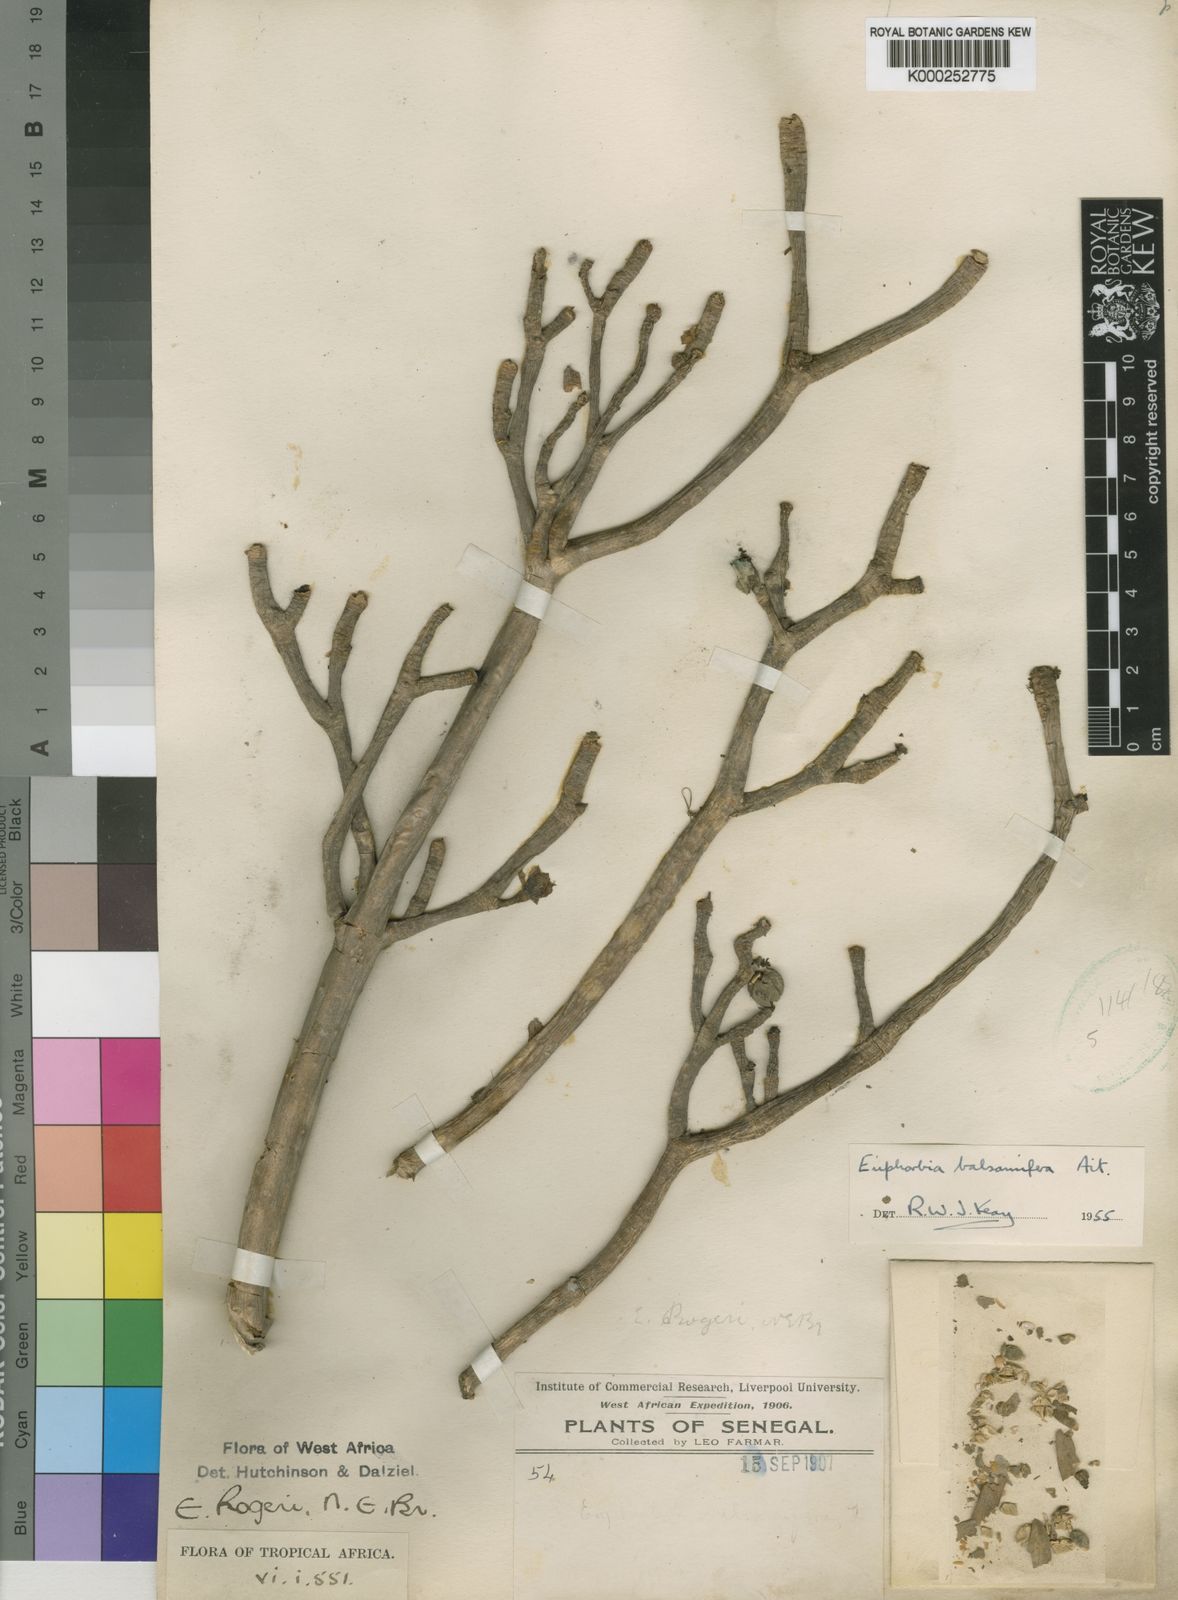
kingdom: Plantae
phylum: Tracheophyta
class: Magnoliopsida
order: Malpighiales
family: Euphorbiaceae
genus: Euphorbia
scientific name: Euphorbia balsamifera
